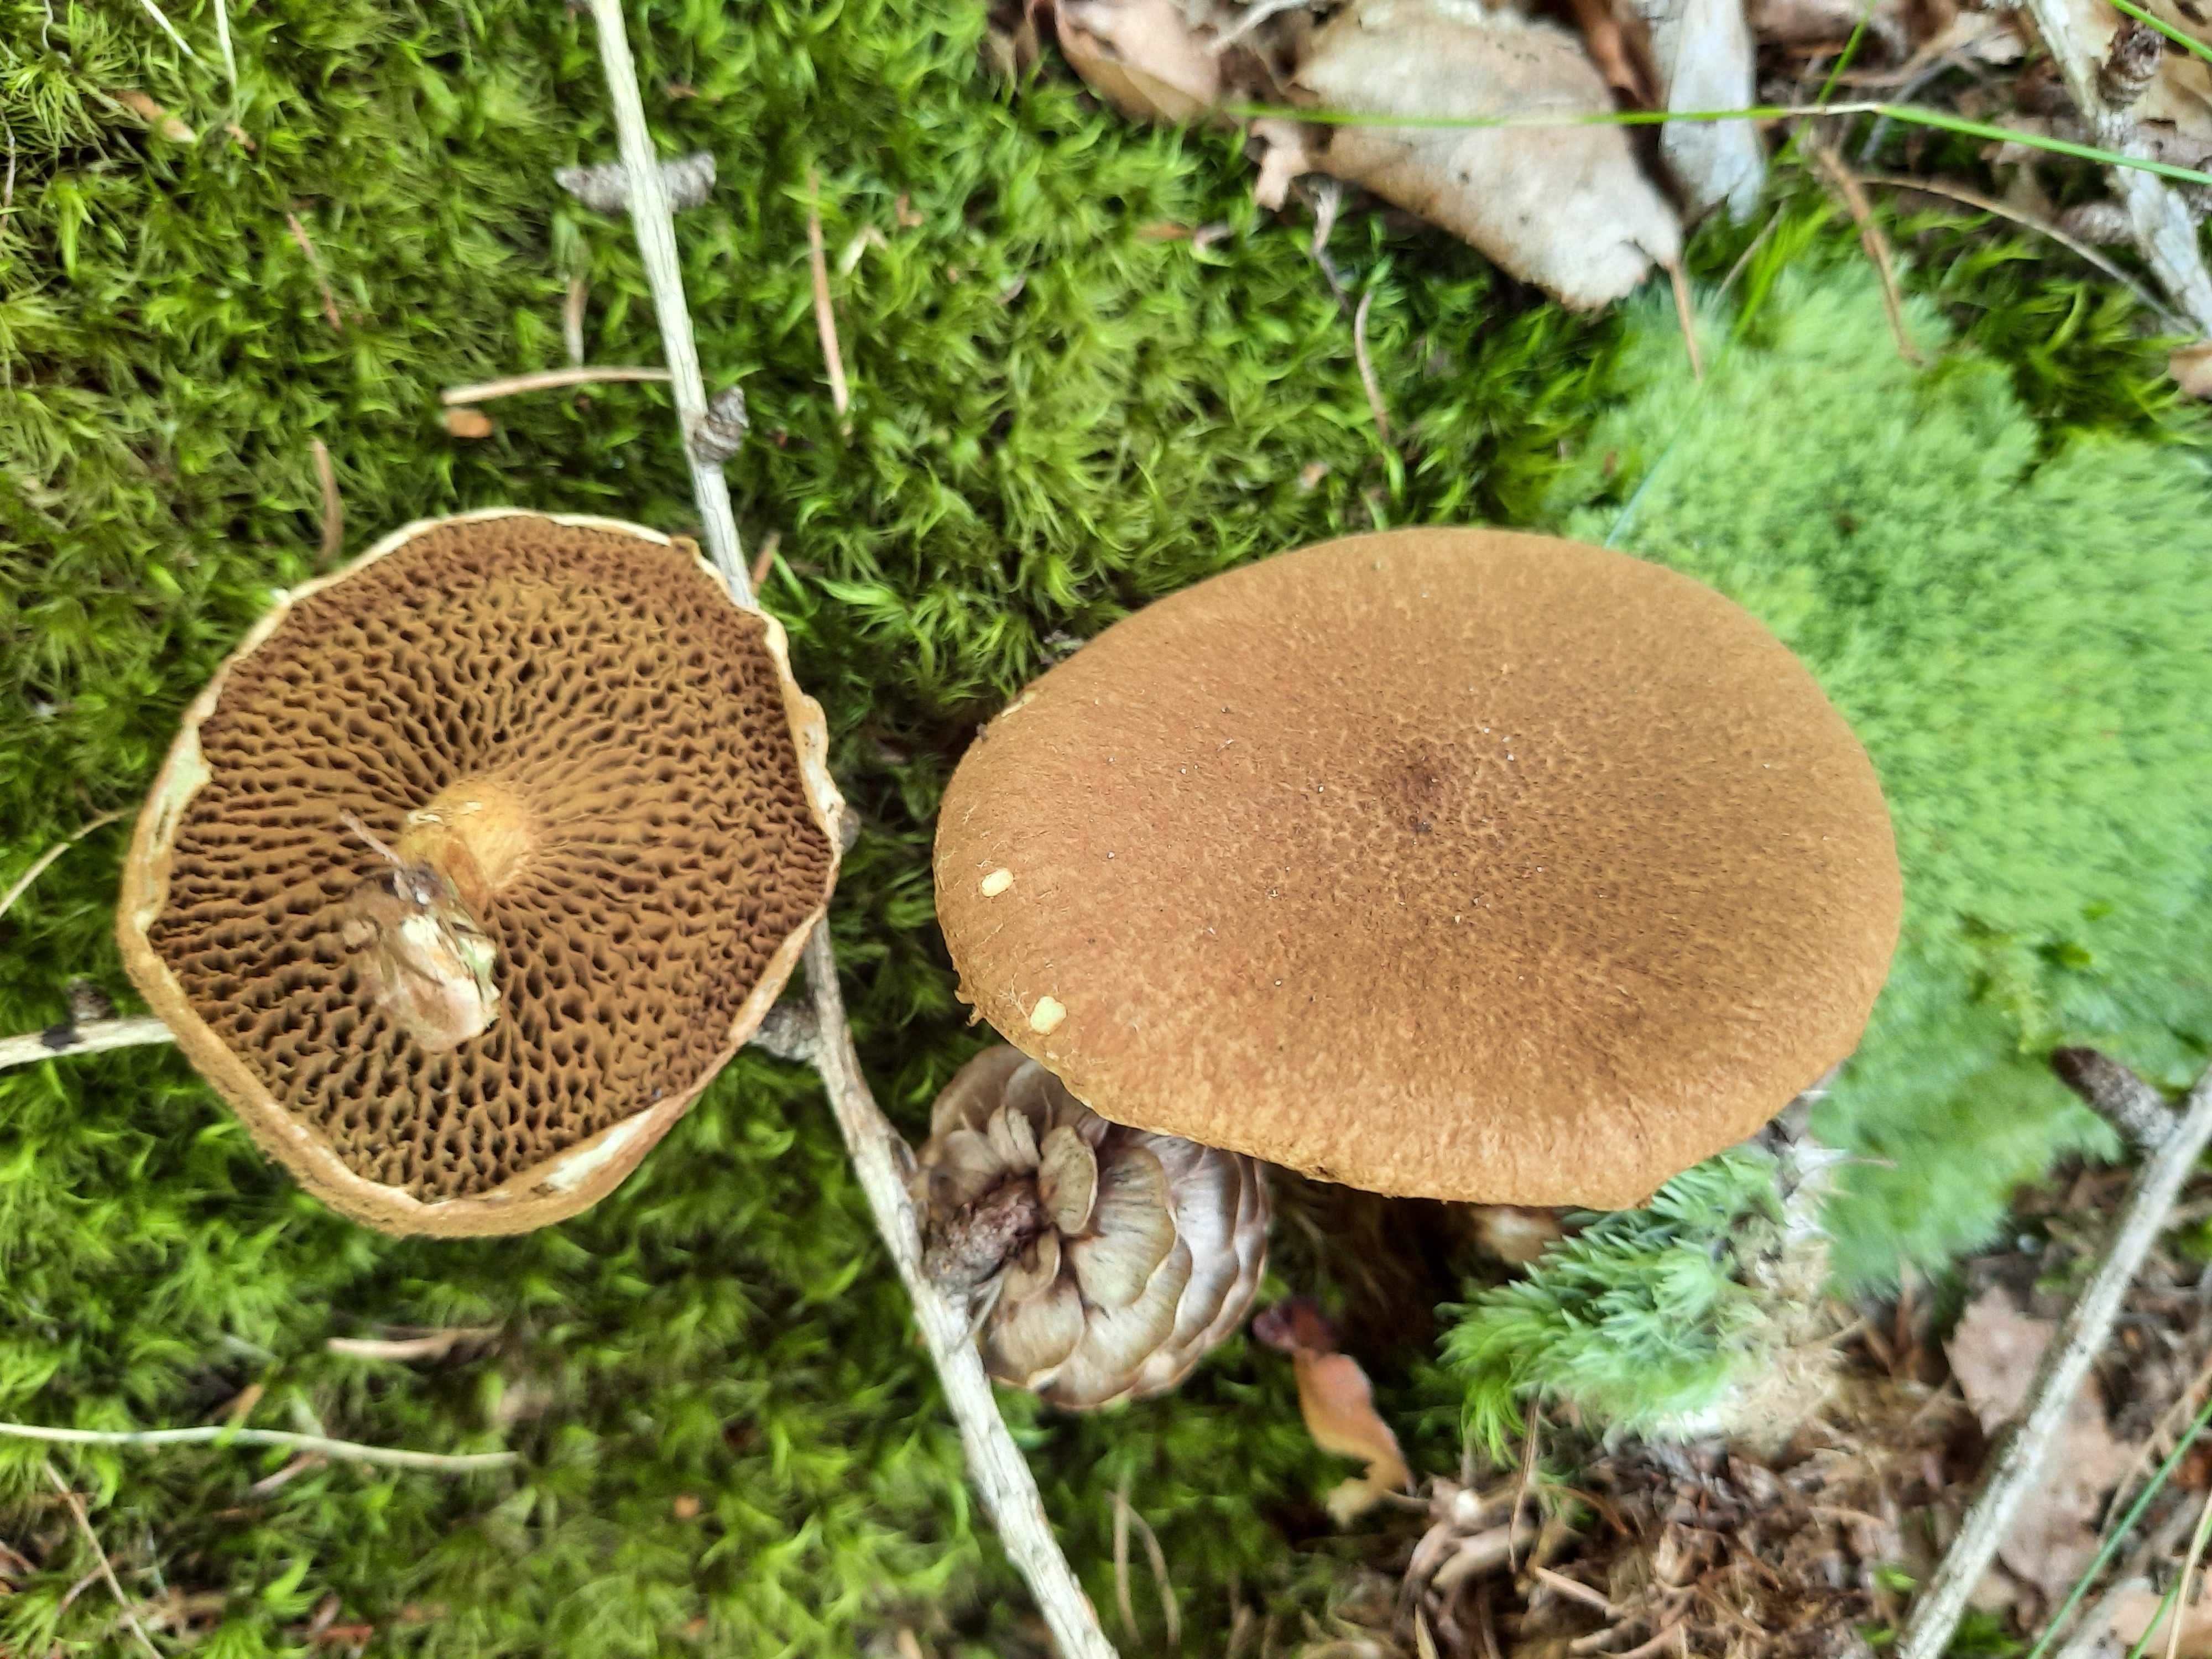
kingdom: Fungi
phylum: Basidiomycota
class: Agaricomycetes
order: Boletales
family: Suillaceae
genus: Suillus
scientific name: Suillus cavipes
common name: hulstokket slimrørhat
